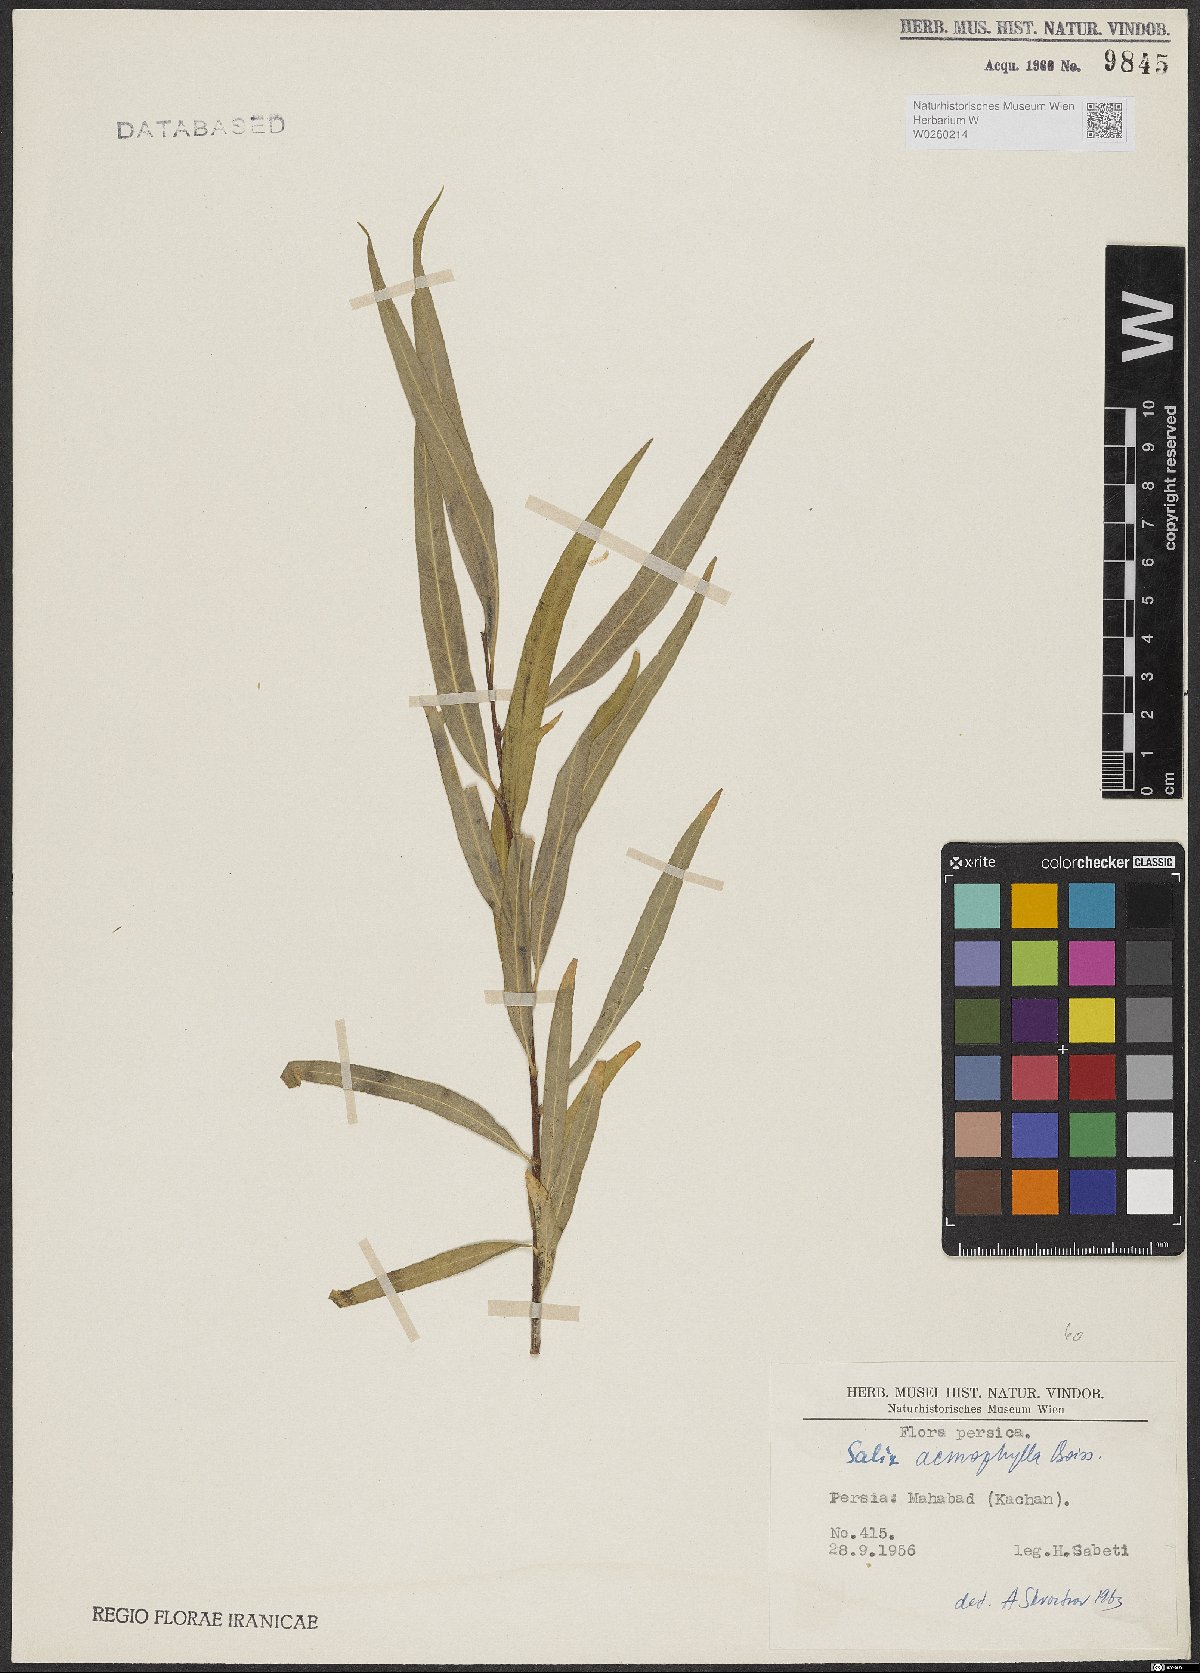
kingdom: Plantae
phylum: Tracheophyta
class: Magnoliopsida
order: Malpighiales
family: Salicaceae
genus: Salix
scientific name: Salix acmophylla
